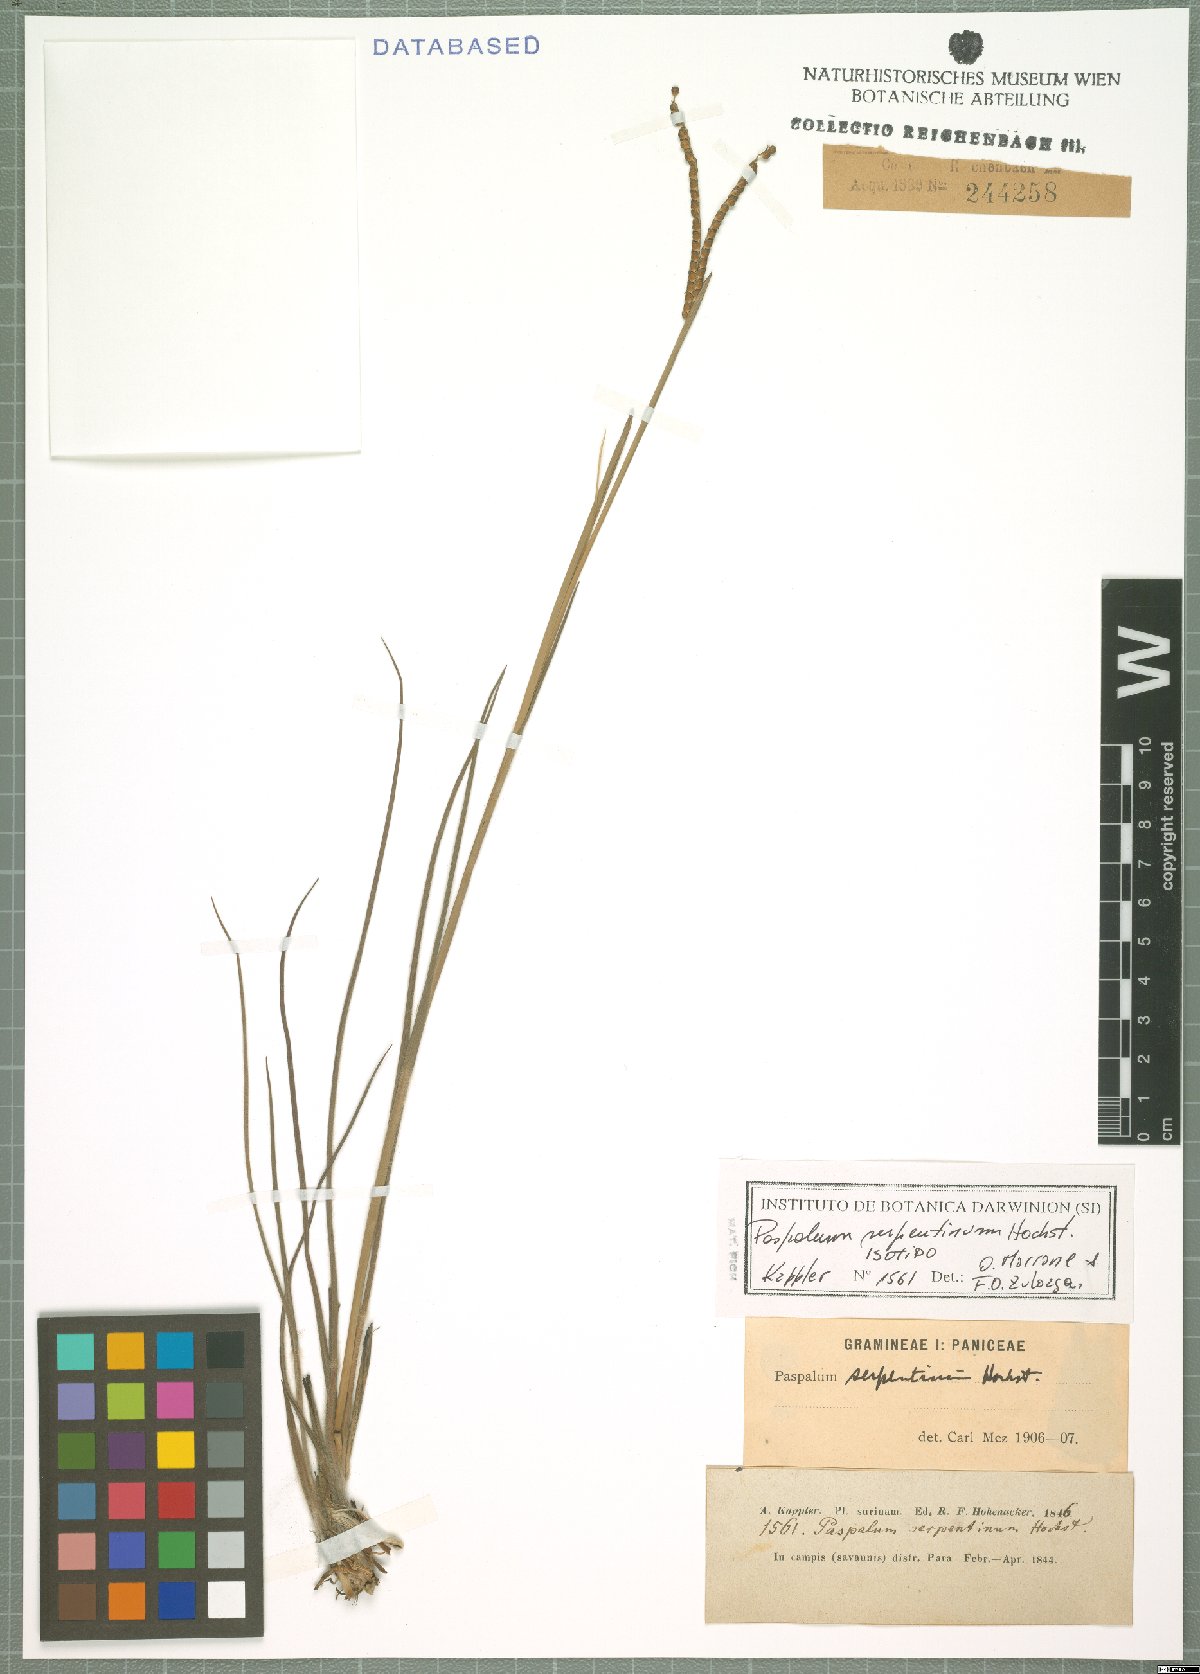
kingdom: Plantae
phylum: Tracheophyta
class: Liliopsida
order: Poales
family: Poaceae
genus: Paspalum
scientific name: Paspalum serpentinum
